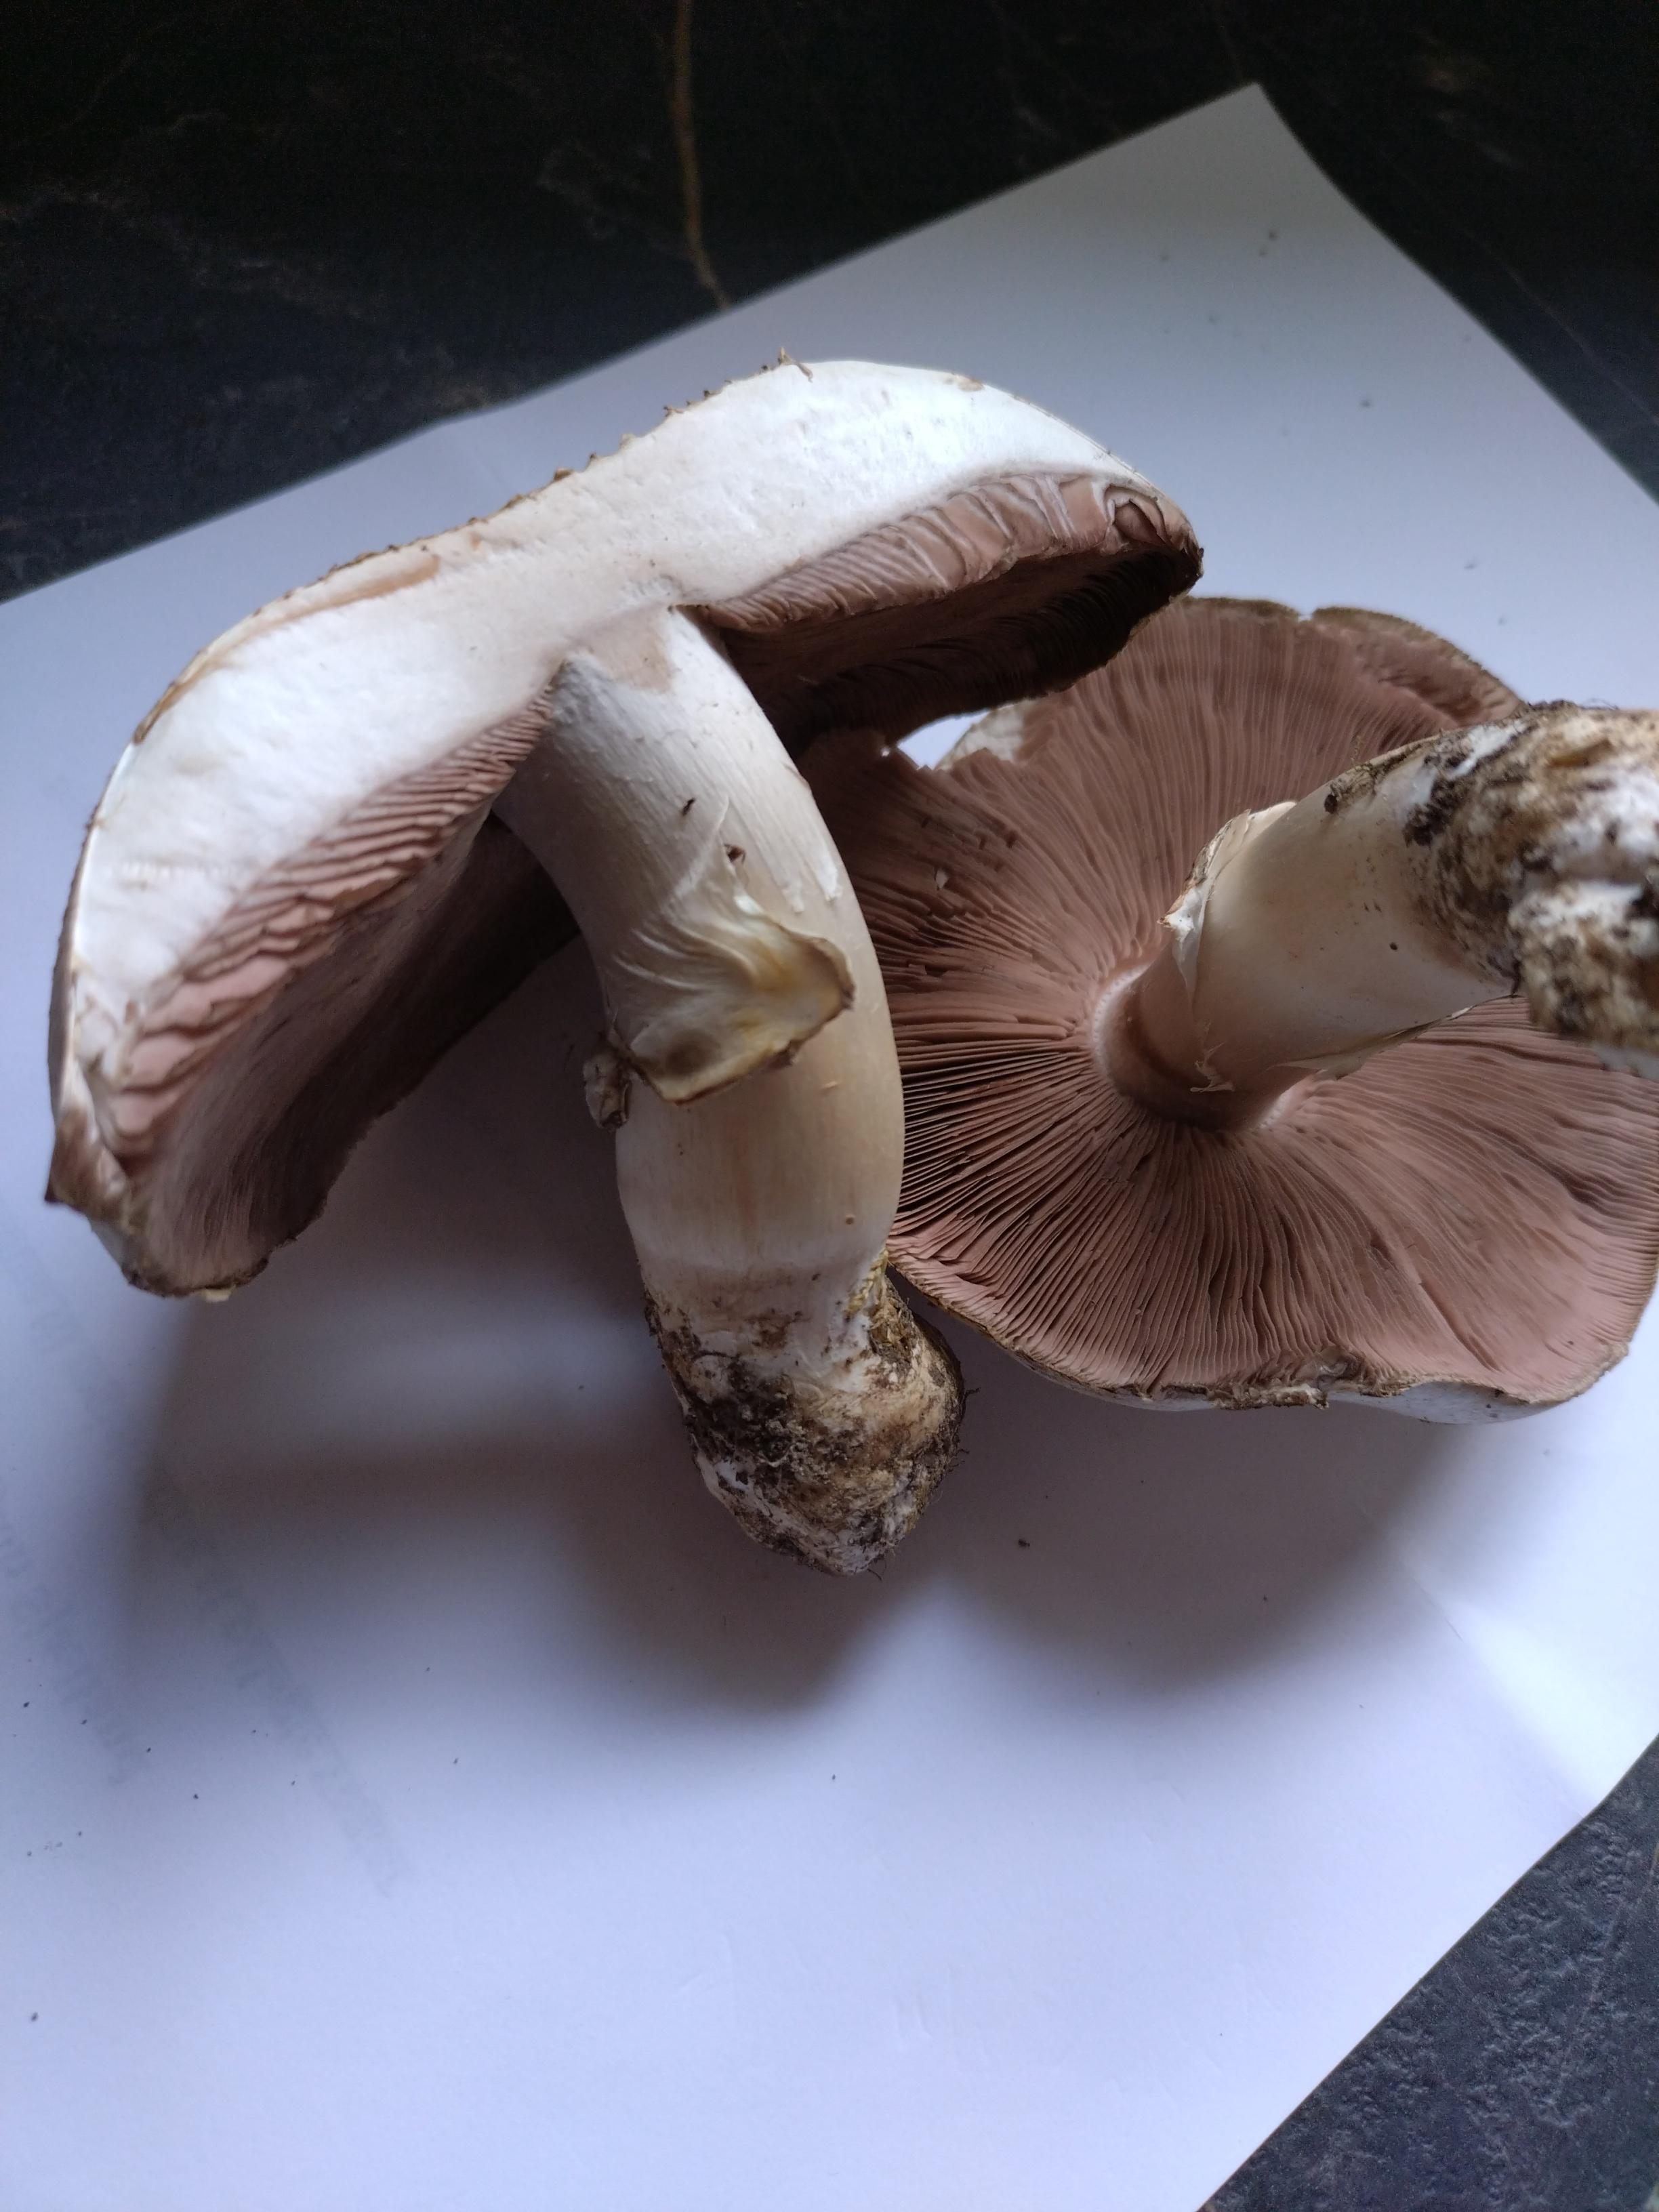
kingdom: Fungi
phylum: Basidiomycota
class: Agaricomycetes
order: Agaricales
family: Agaricaceae
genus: Agaricus
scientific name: Agaricus
